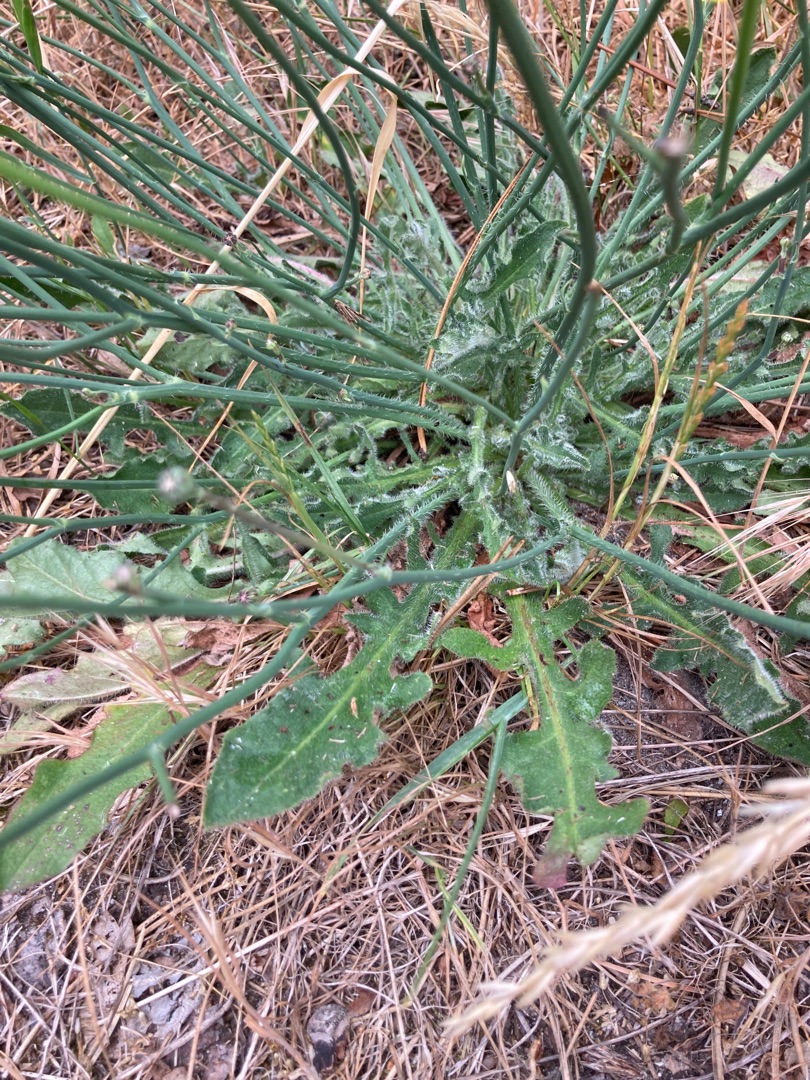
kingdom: Plantae
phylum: Tracheophyta
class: Magnoliopsida
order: Asterales
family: Asteraceae
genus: Hypochaeris
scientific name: Hypochaeris radicata
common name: Almindelig kongepen
